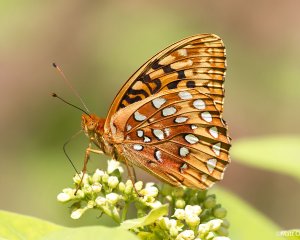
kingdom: Animalia
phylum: Arthropoda
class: Insecta
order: Lepidoptera
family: Nymphalidae
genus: Speyeria
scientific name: Speyeria cybele
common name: Great Spangled Fritillary
